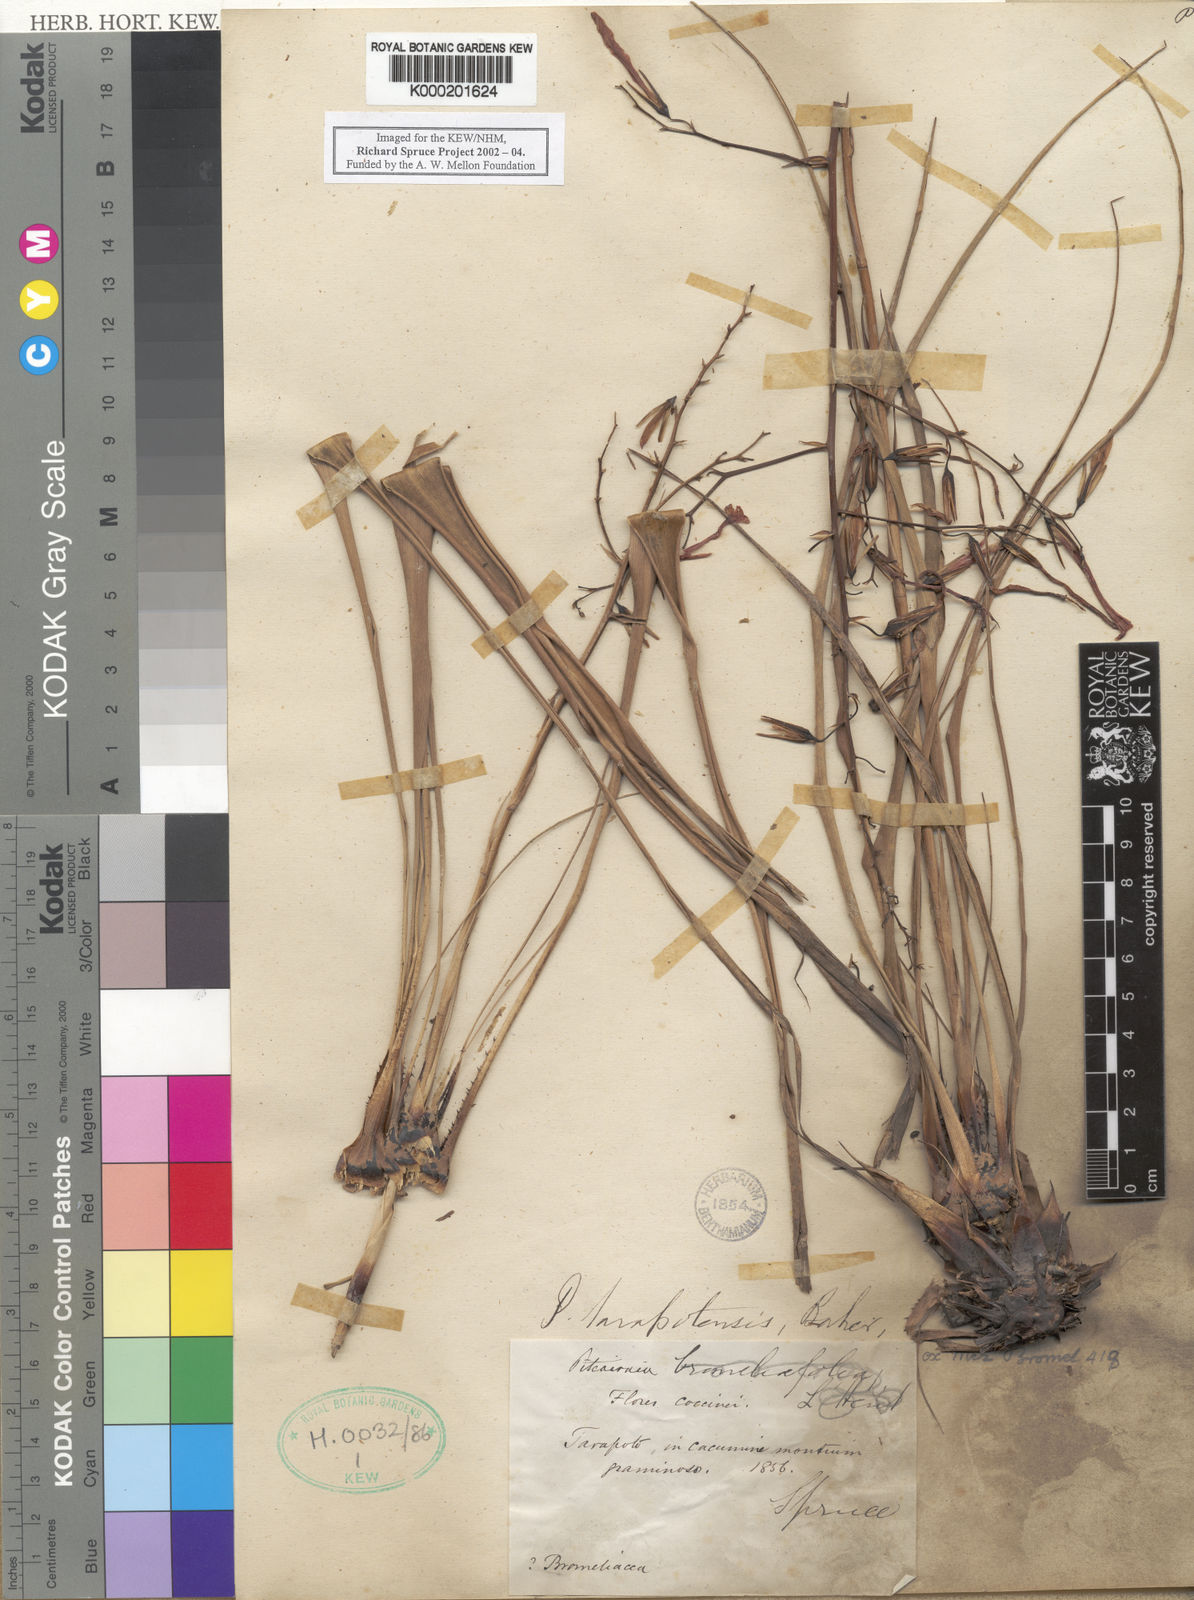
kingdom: Plantae
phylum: Tracheophyta
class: Liliopsida
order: Poales
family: Bromeliaceae
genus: Pitcairnia
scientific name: Pitcairnia tarapotensis
